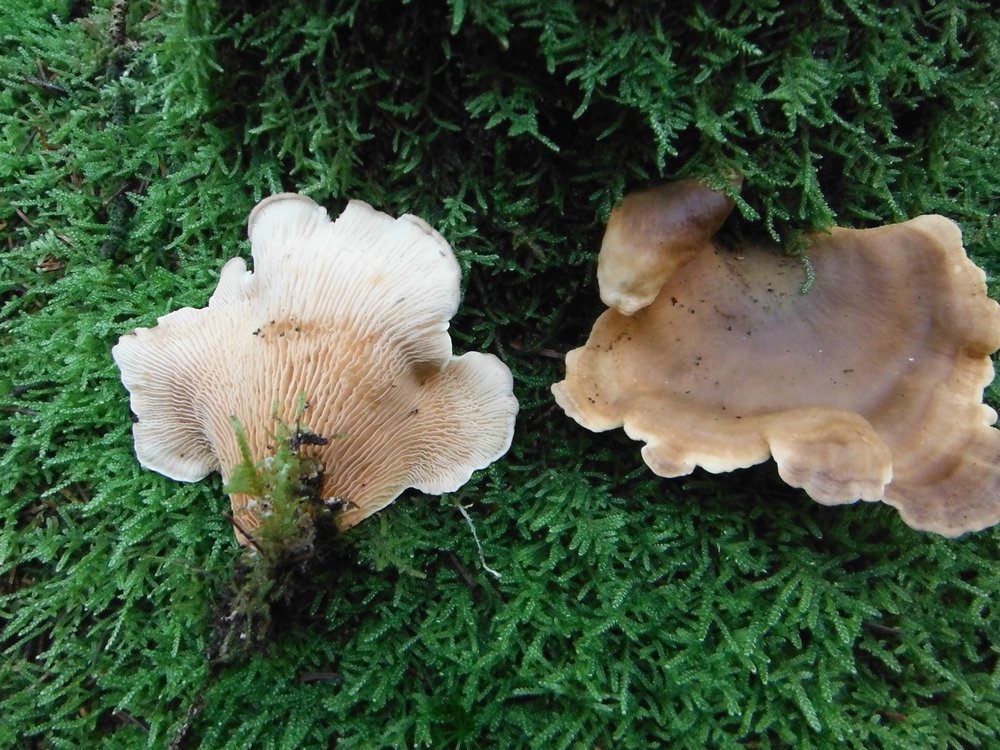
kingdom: Fungi
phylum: Basidiomycota
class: Agaricomycetes
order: Boletales
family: Tapinellaceae
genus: Tapinella
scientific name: Tapinella panuoides
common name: tømmer-viftesvamp
